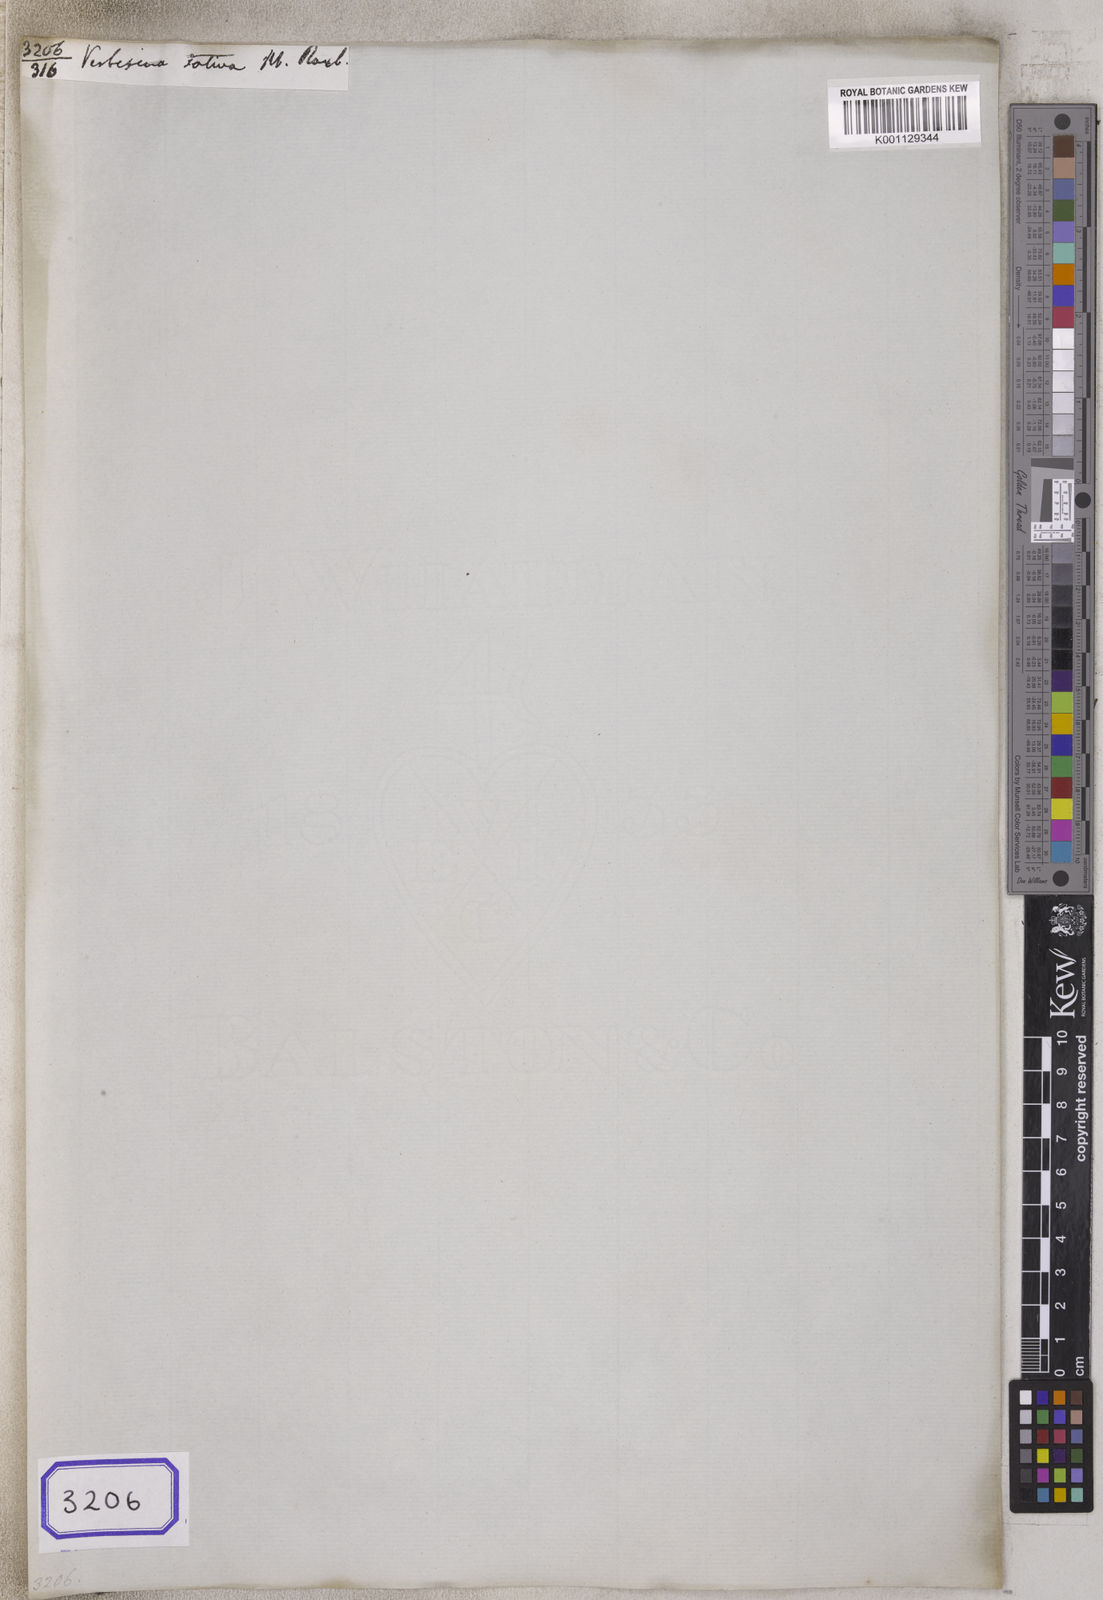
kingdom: Plantae
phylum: Tracheophyta
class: Magnoliopsida
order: Asterales
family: Asteraceae
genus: Guizotia
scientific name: Guizotia abyssinica
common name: Niger
